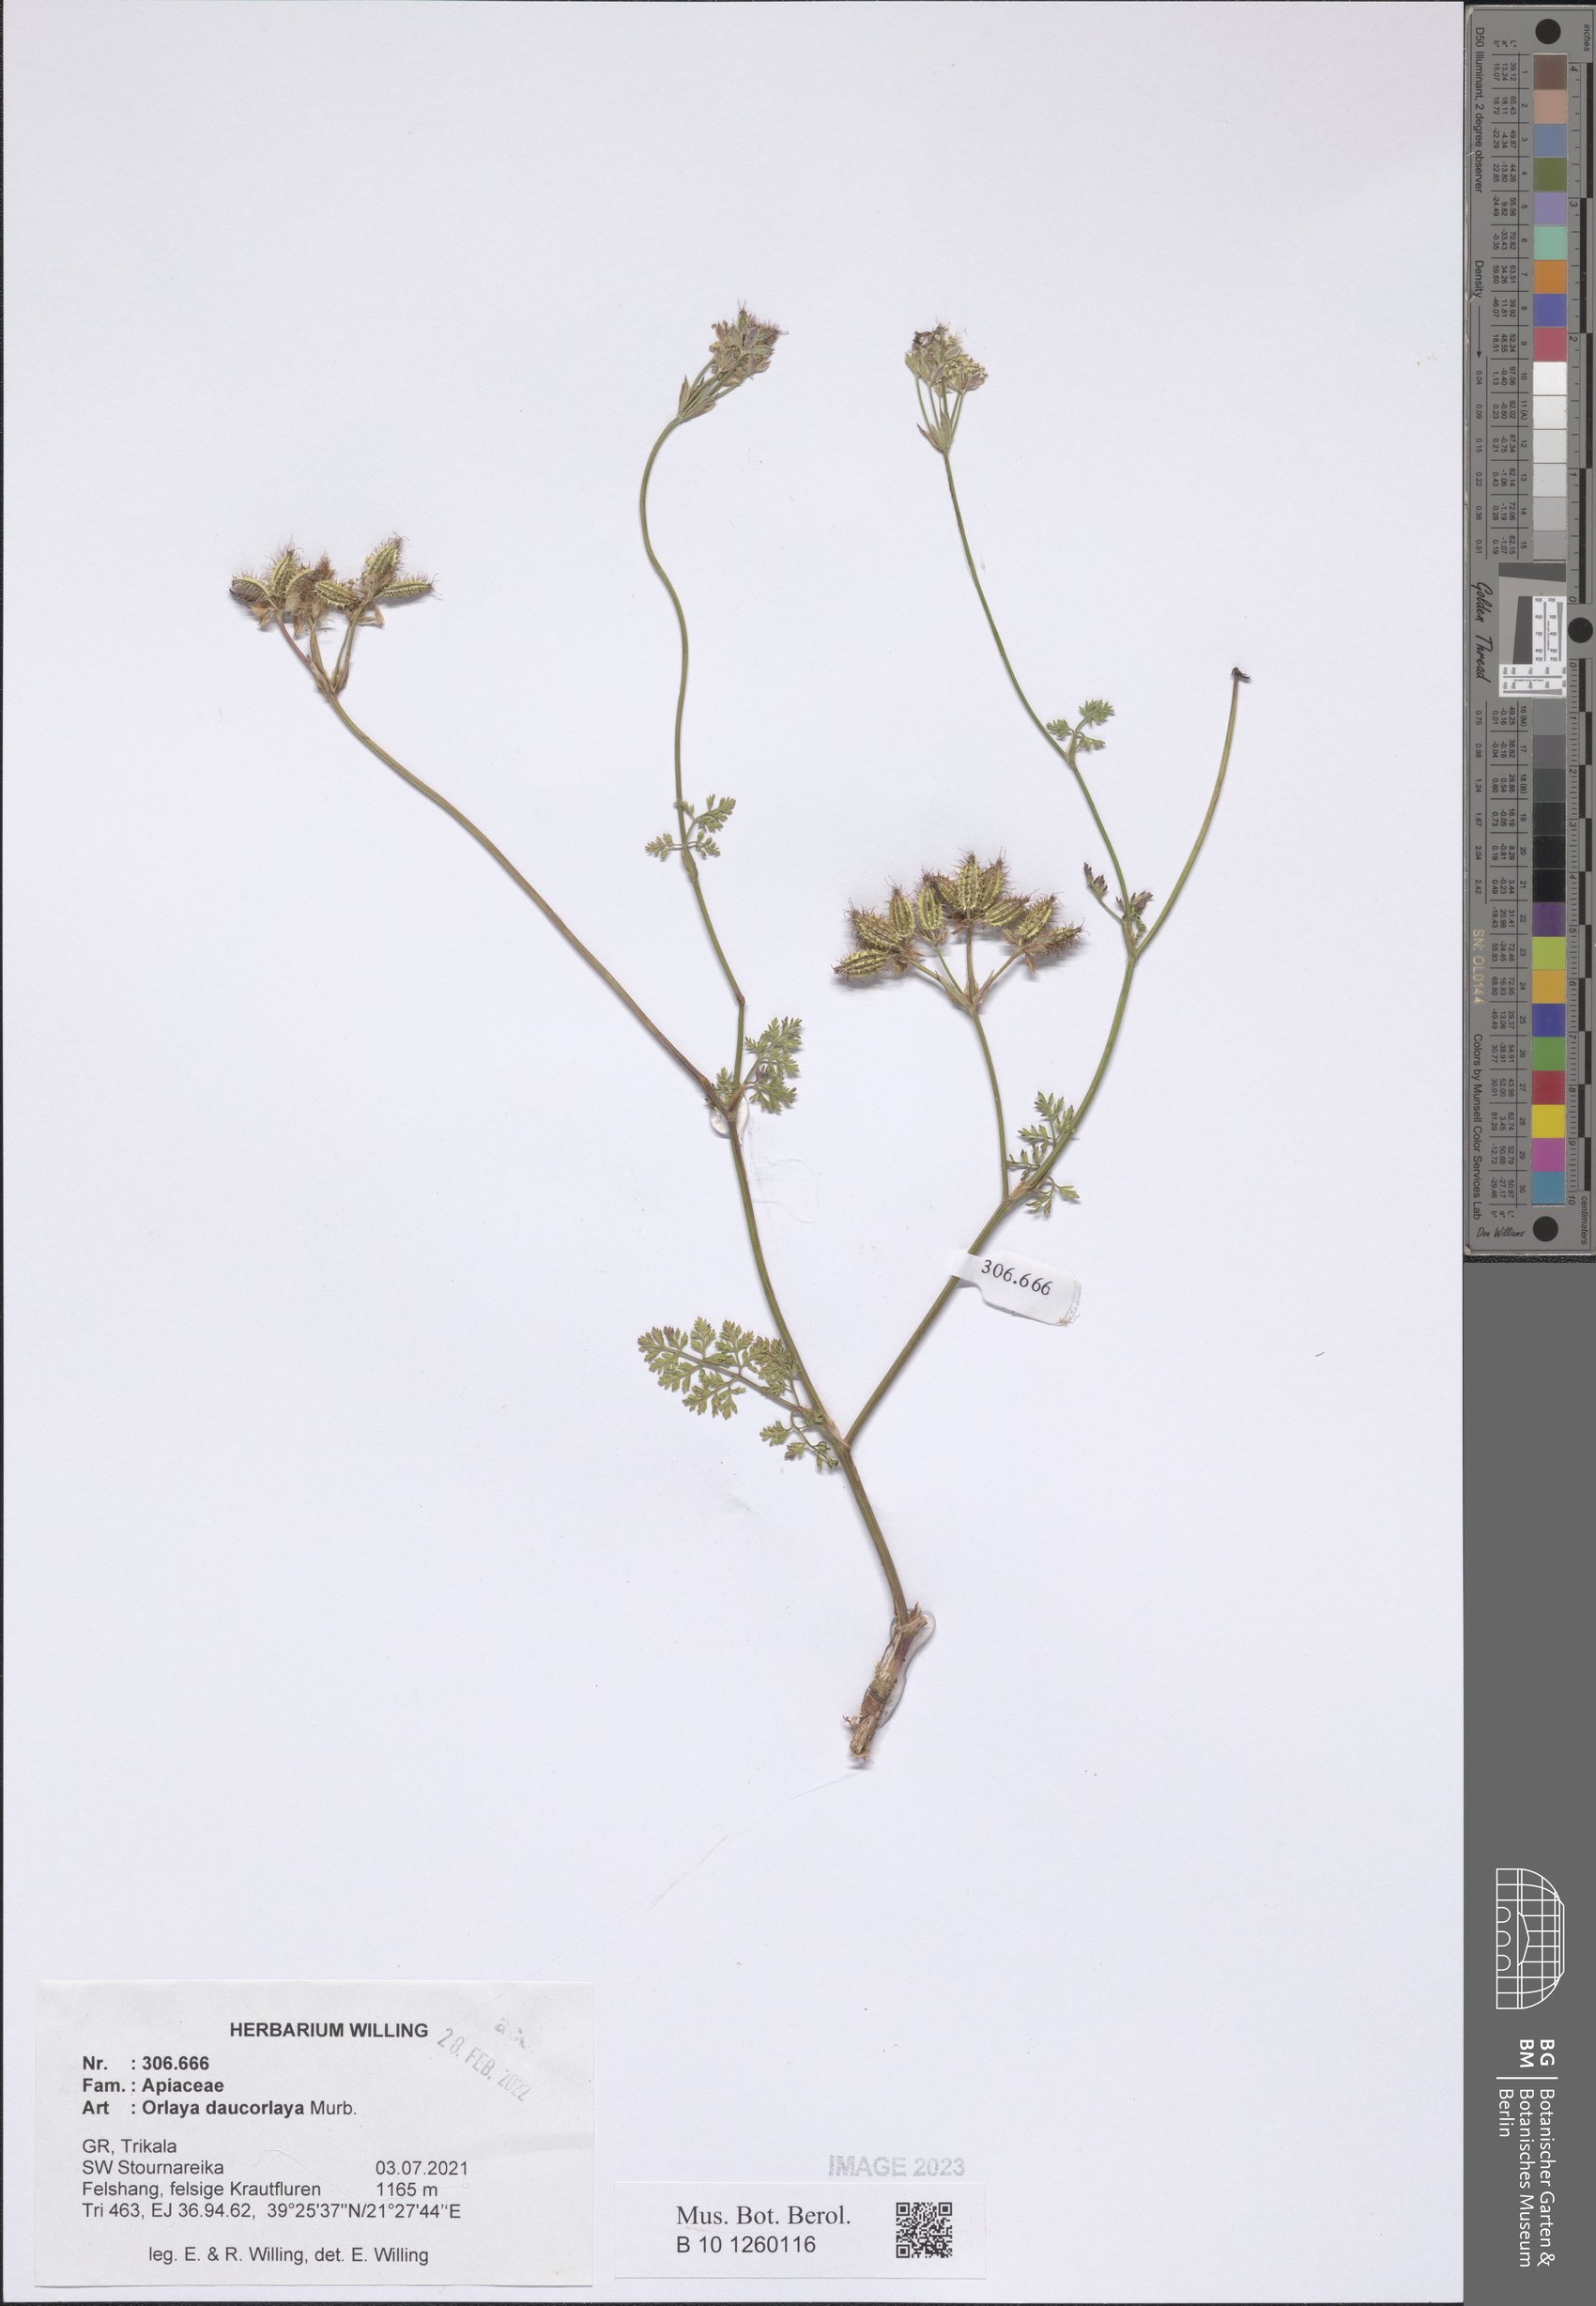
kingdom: Plantae
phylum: Tracheophyta
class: Magnoliopsida
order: Apiales
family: Apiaceae
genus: Orlaya
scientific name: Orlaya daucorlaya
